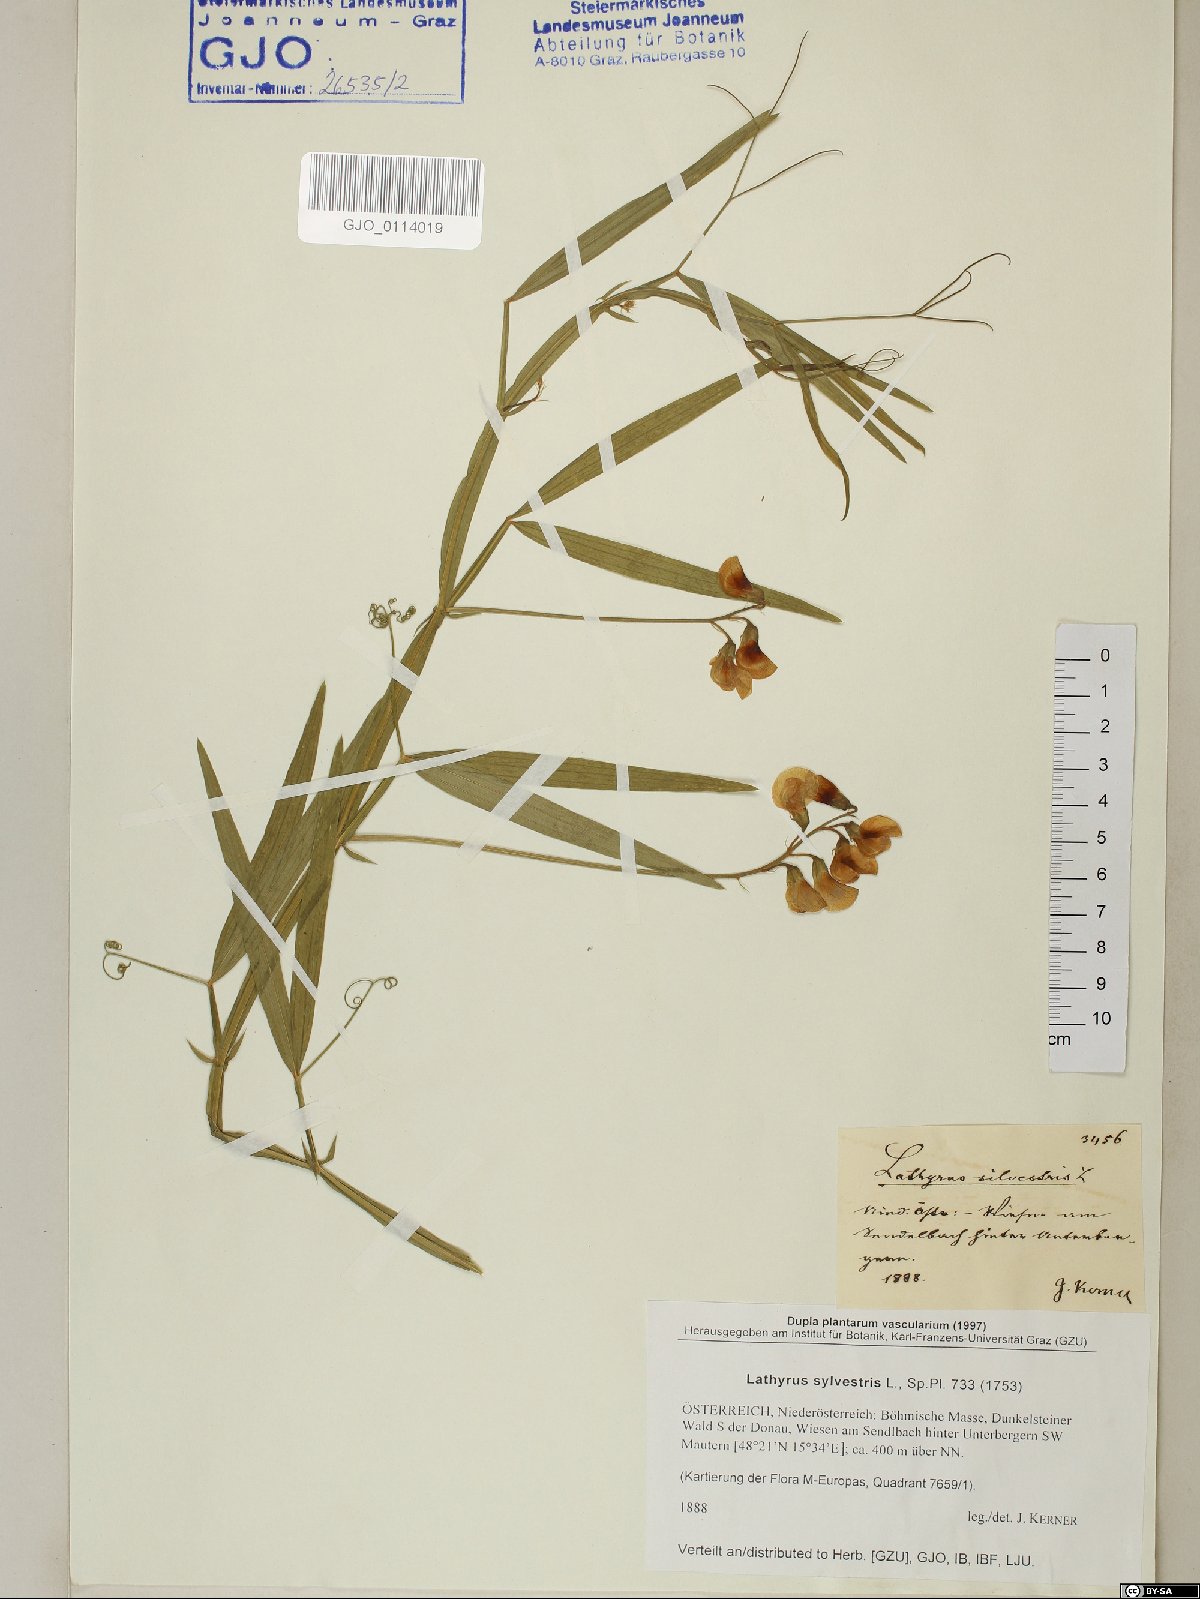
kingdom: Plantae
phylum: Tracheophyta
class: Magnoliopsida
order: Fabales
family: Fabaceae
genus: Lathyrus
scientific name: Lathyrus sylvestris
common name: Flat pea
